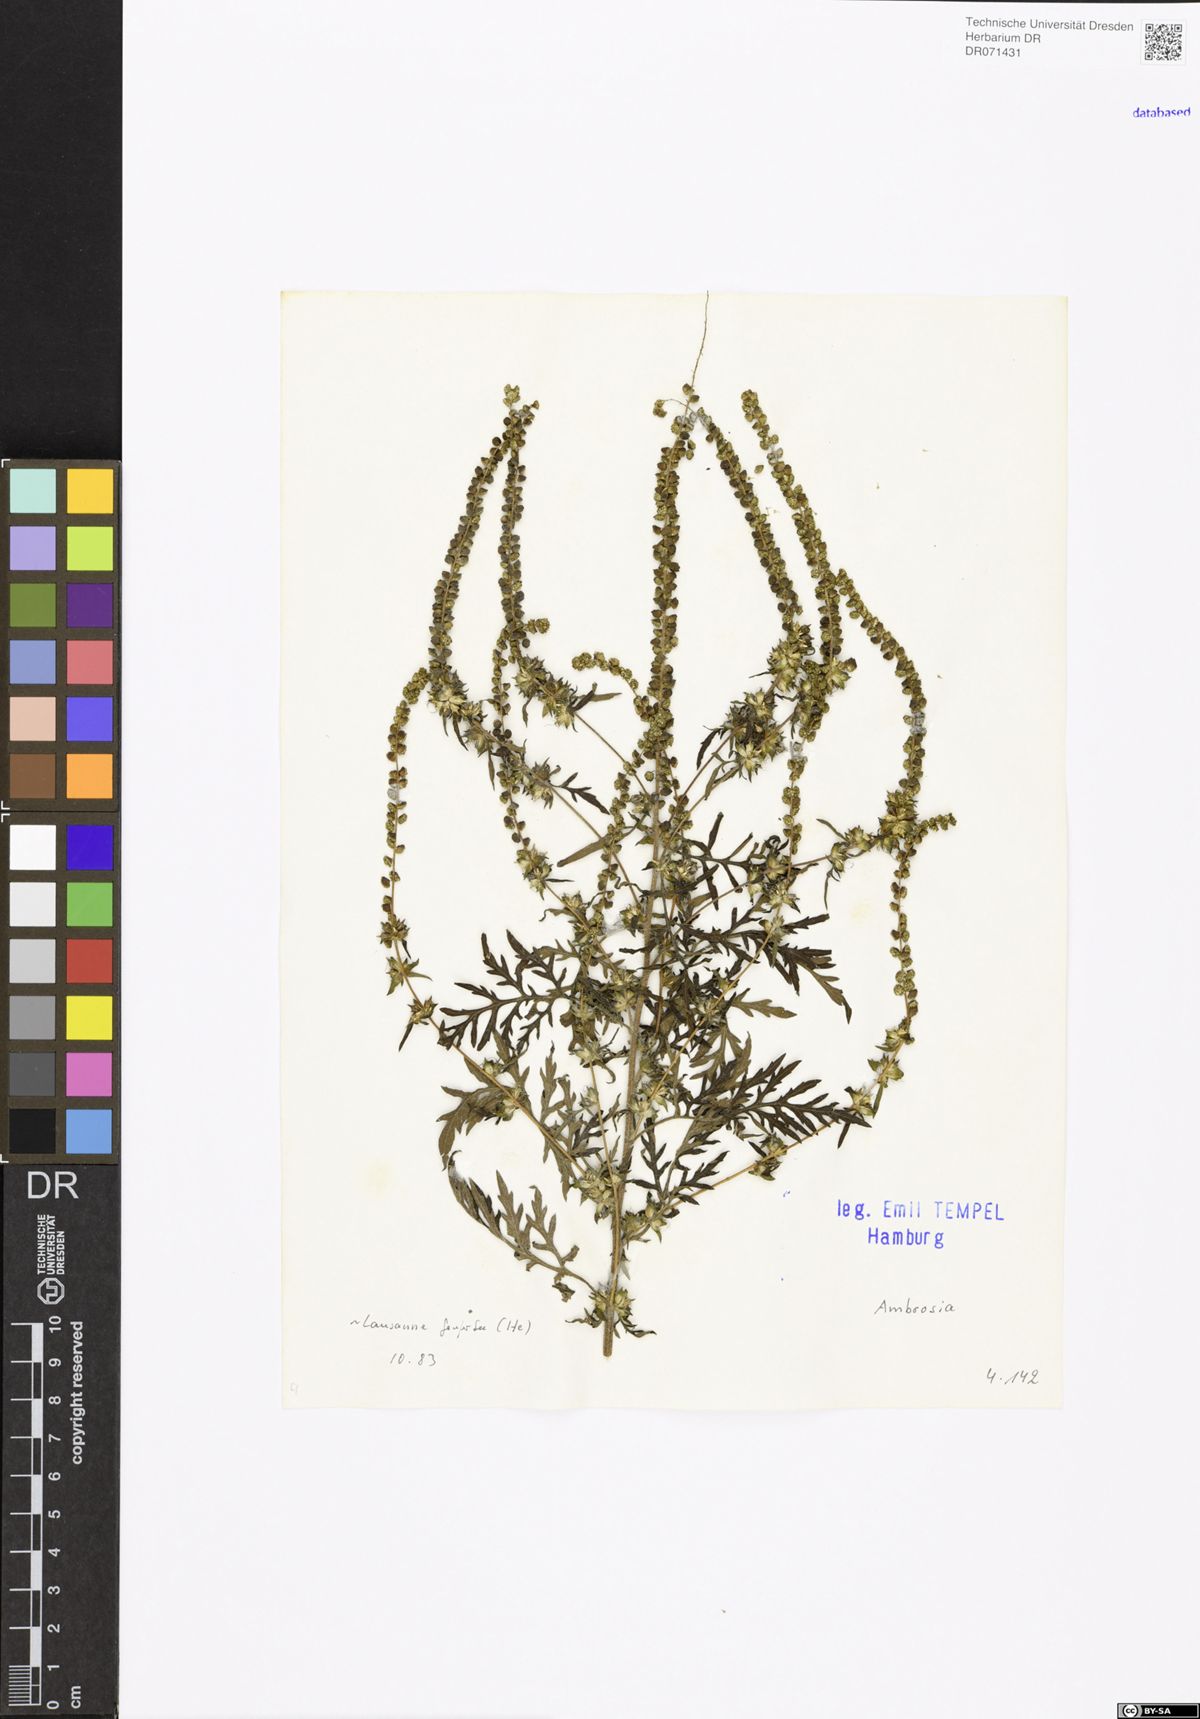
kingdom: Plantae
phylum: Tracheophyta
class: Magnoliopsida
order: Asterales
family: Asteraceae
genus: Ambrosia
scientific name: Ambrosia
